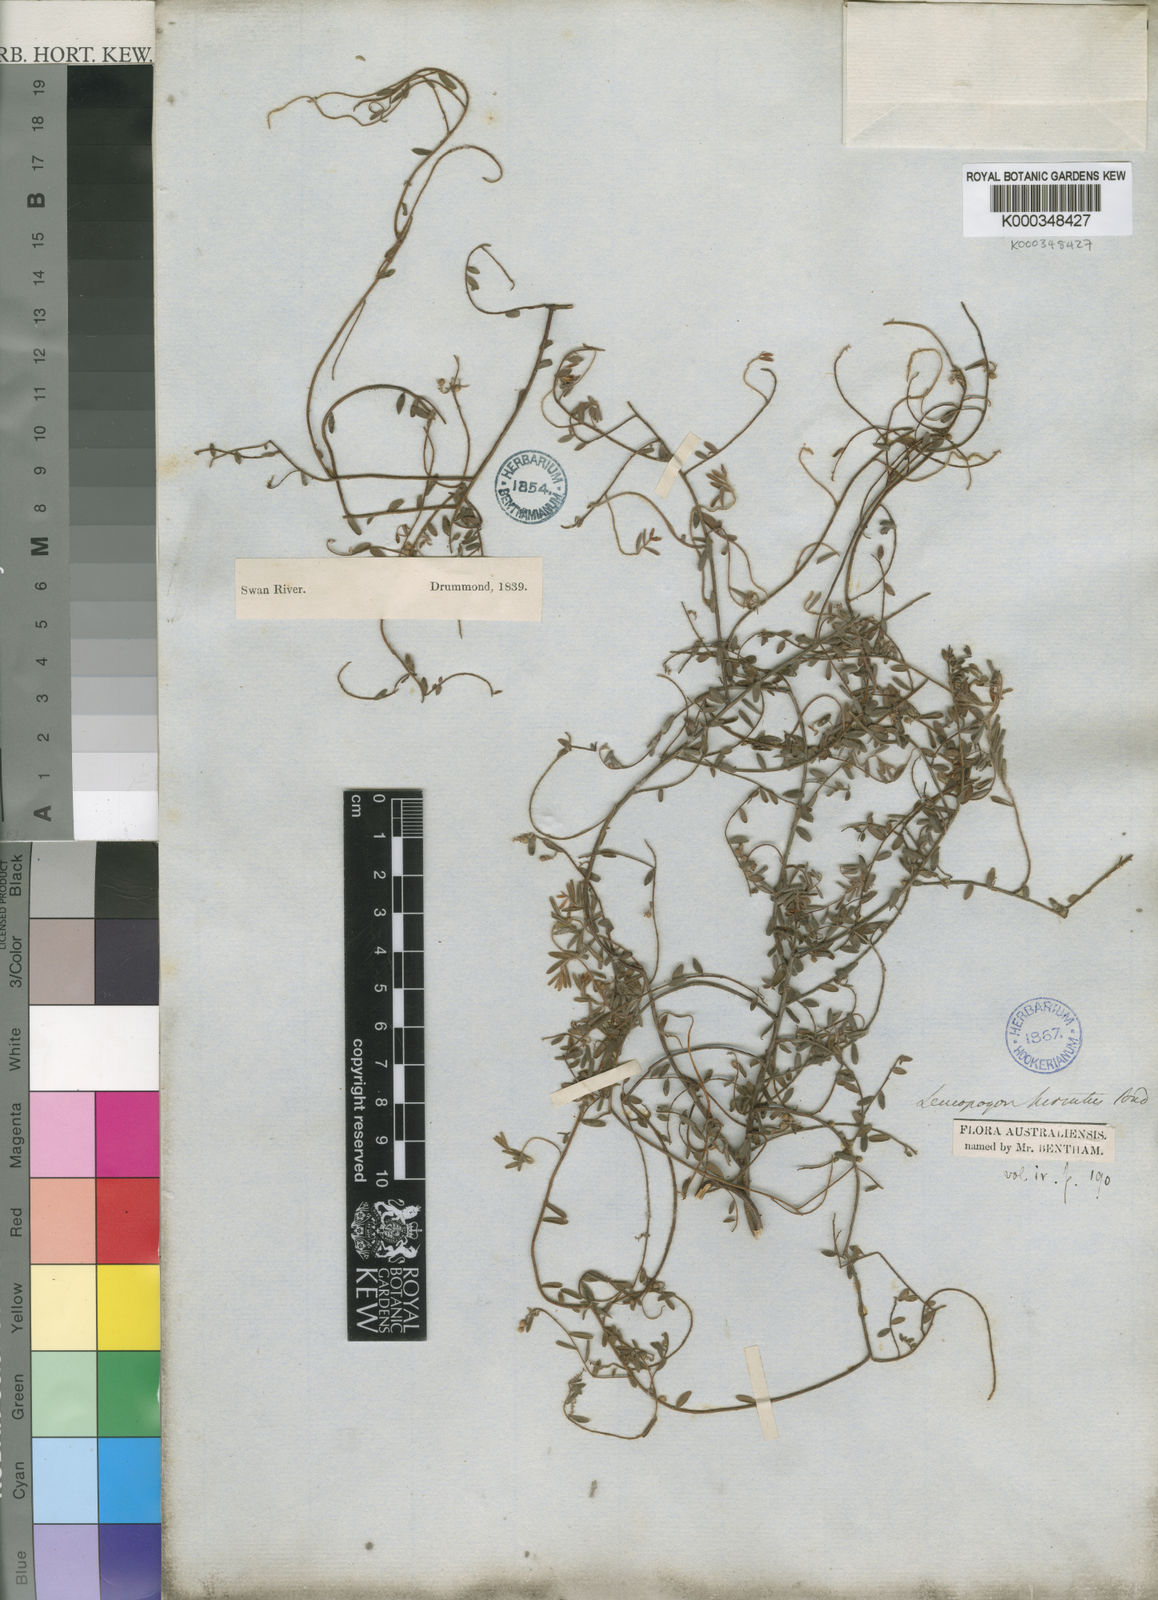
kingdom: Plantae
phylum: Tracheophyta
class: Magnoliopsida
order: Ericales
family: Ericaceae
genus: Leucopogon
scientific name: Leucopogon hirsutus
